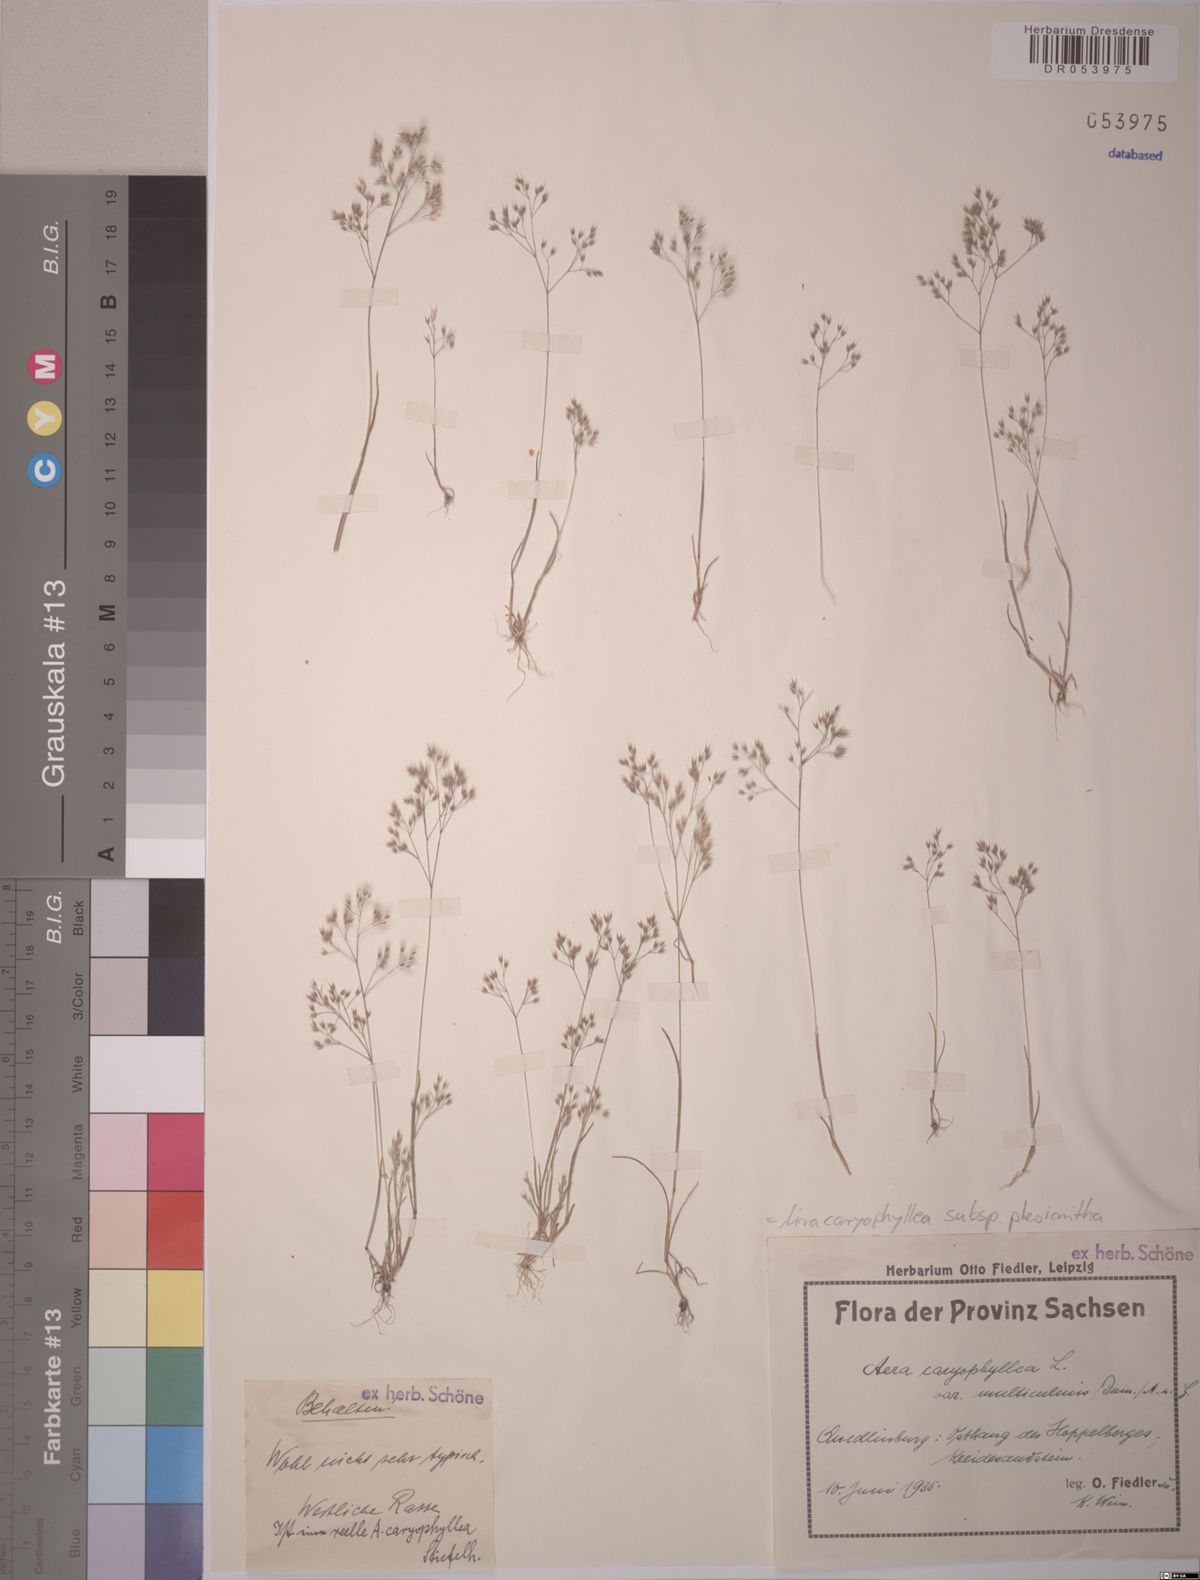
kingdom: Plantae
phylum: Tracheophyta
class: Liliopsida
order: Poales
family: Poaceae
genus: Aira
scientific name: Aira caryophyllea
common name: Silver hairgrass
